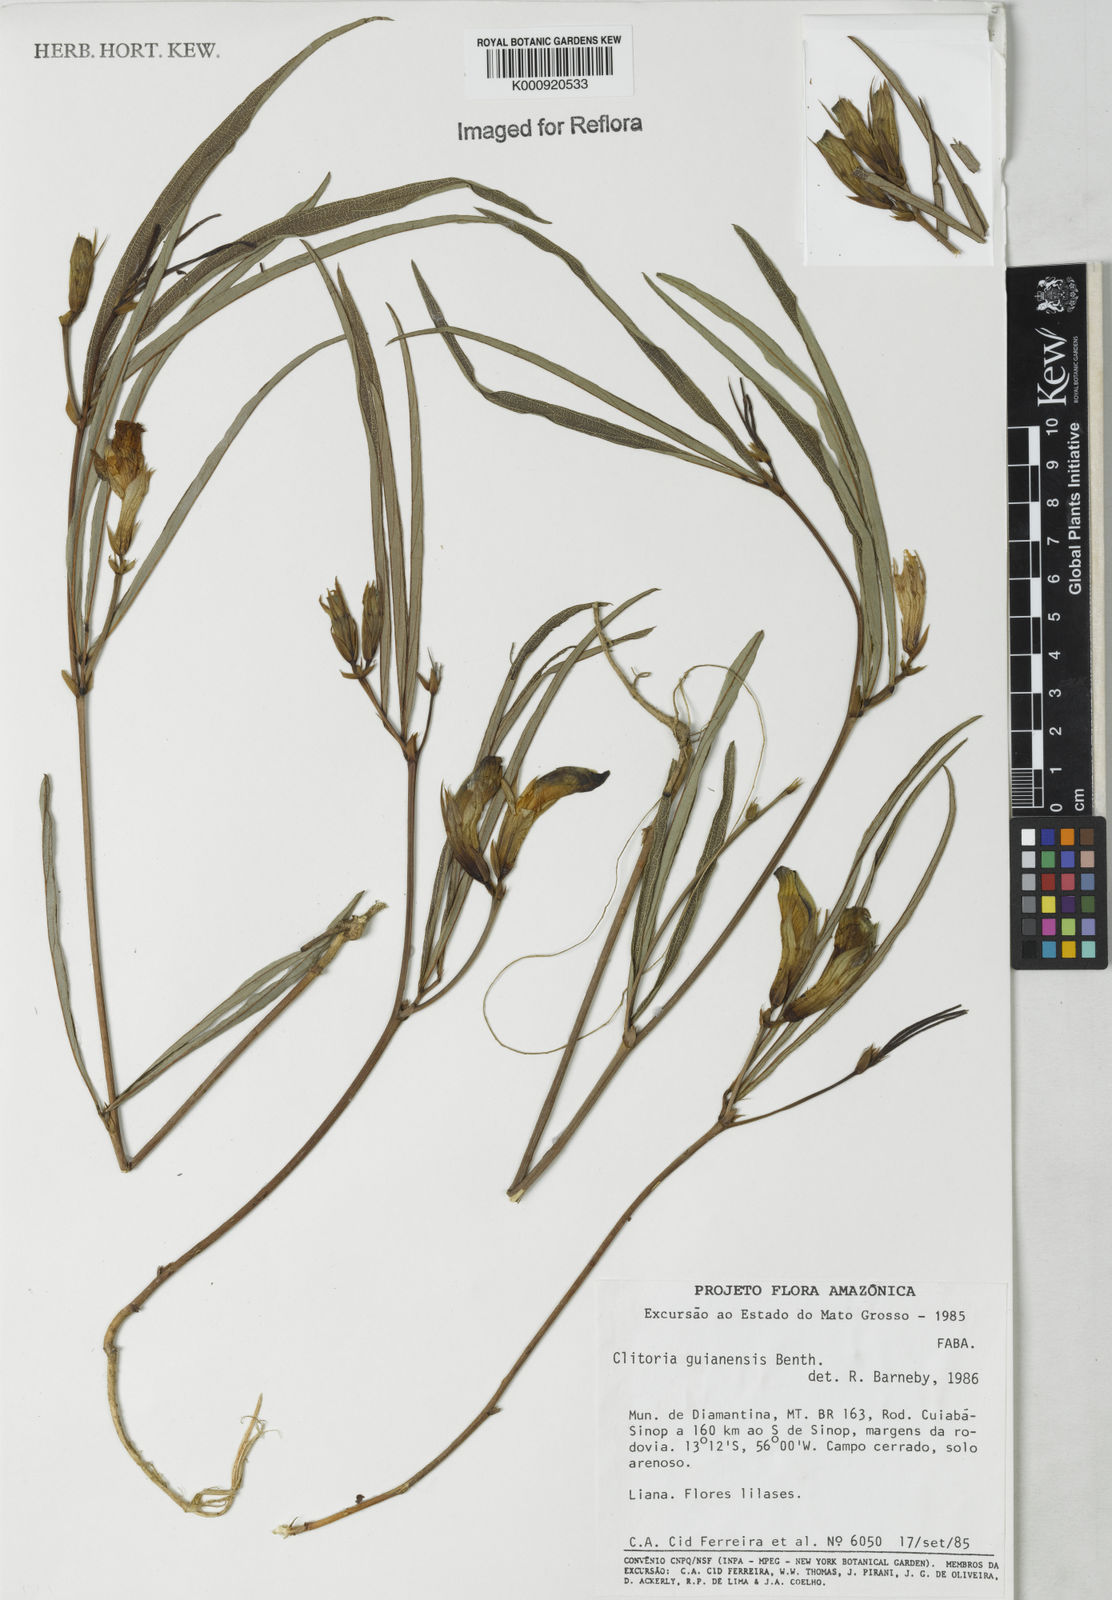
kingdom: Plantae
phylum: Tracheophyta
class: Magnoliopsida
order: Fabales
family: Fabaceae
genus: Clitoria
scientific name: Clitoria guianensis
